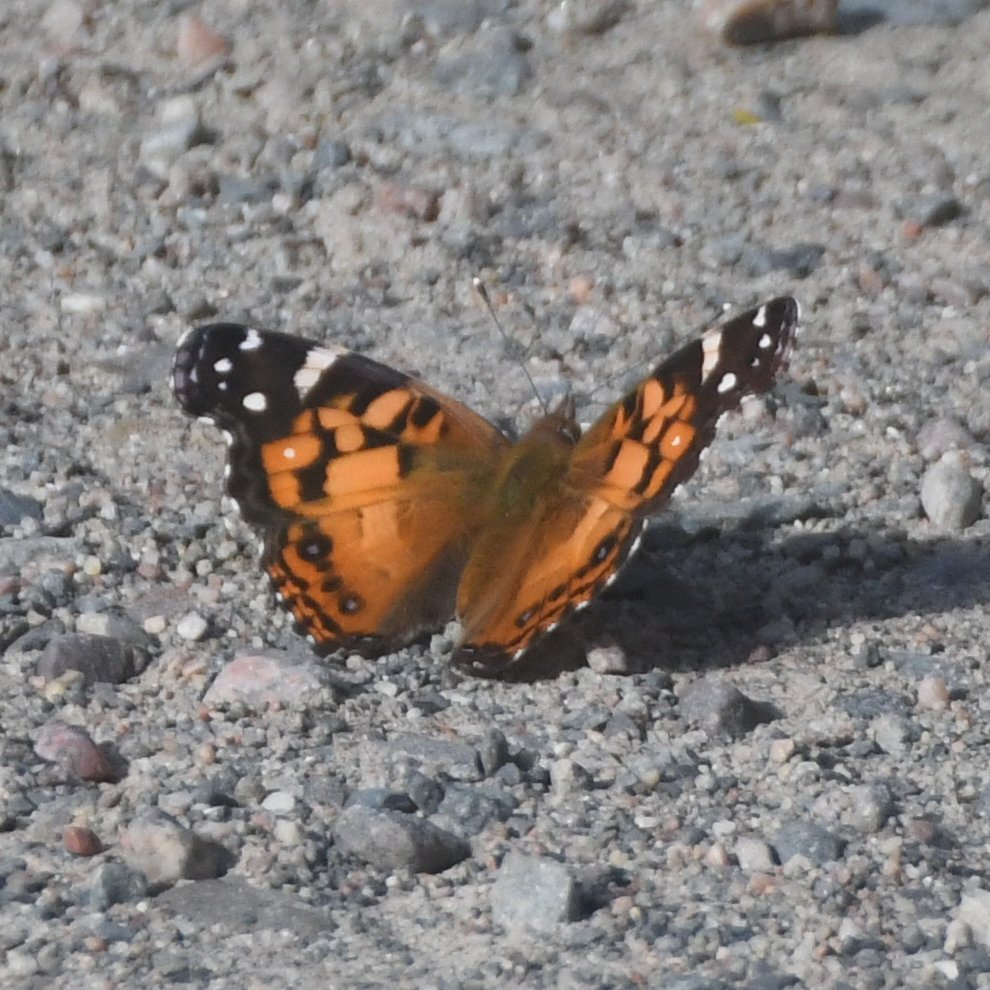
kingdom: Animalia
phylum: Arthropoda
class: Insecta
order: Lepidoptera
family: Nymphalidae
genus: Vanessa
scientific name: Vanessa virginiensis
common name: American Lady
